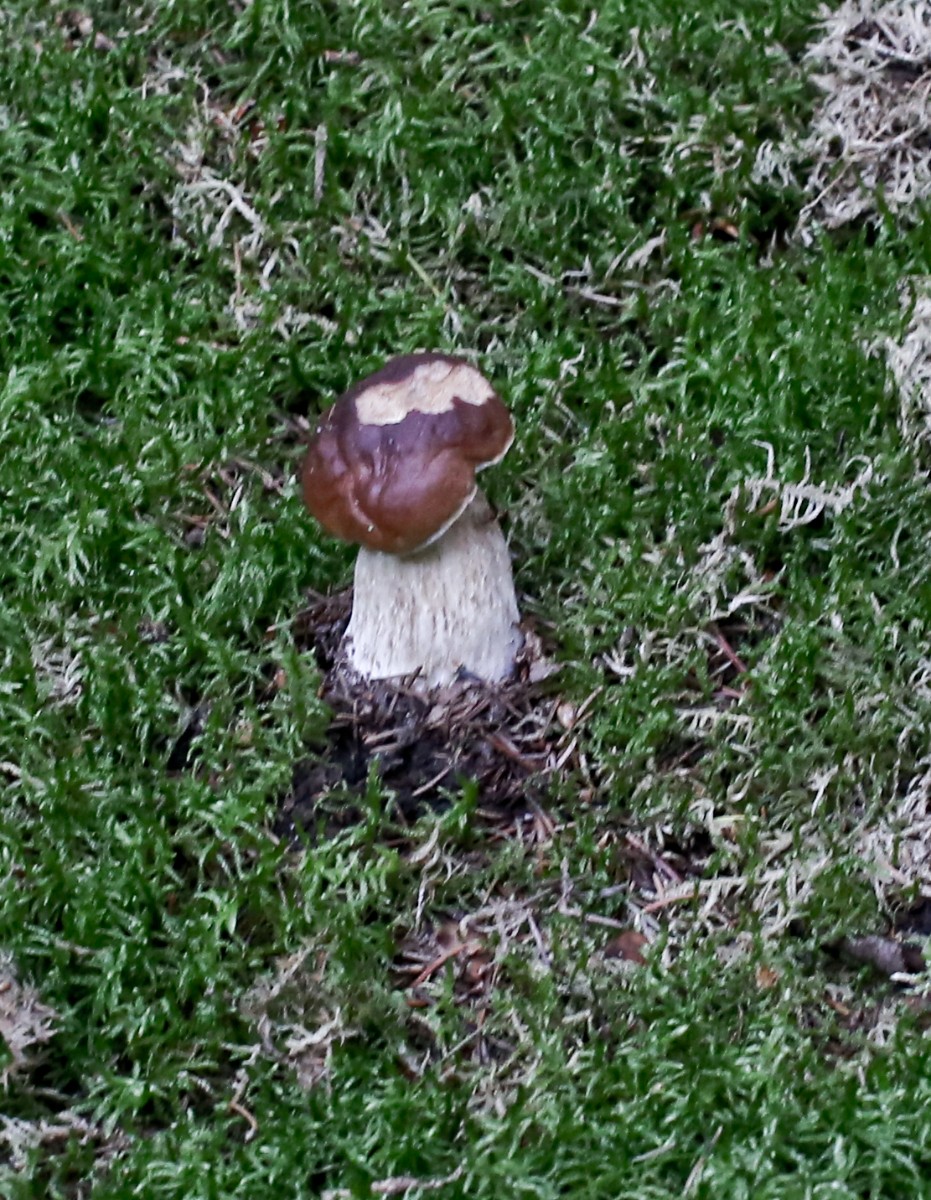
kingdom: Fungi
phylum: Basidiomycota
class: Agaricomycetes
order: Boletales
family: Boletaceae
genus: Boletus
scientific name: Boletus edulis
